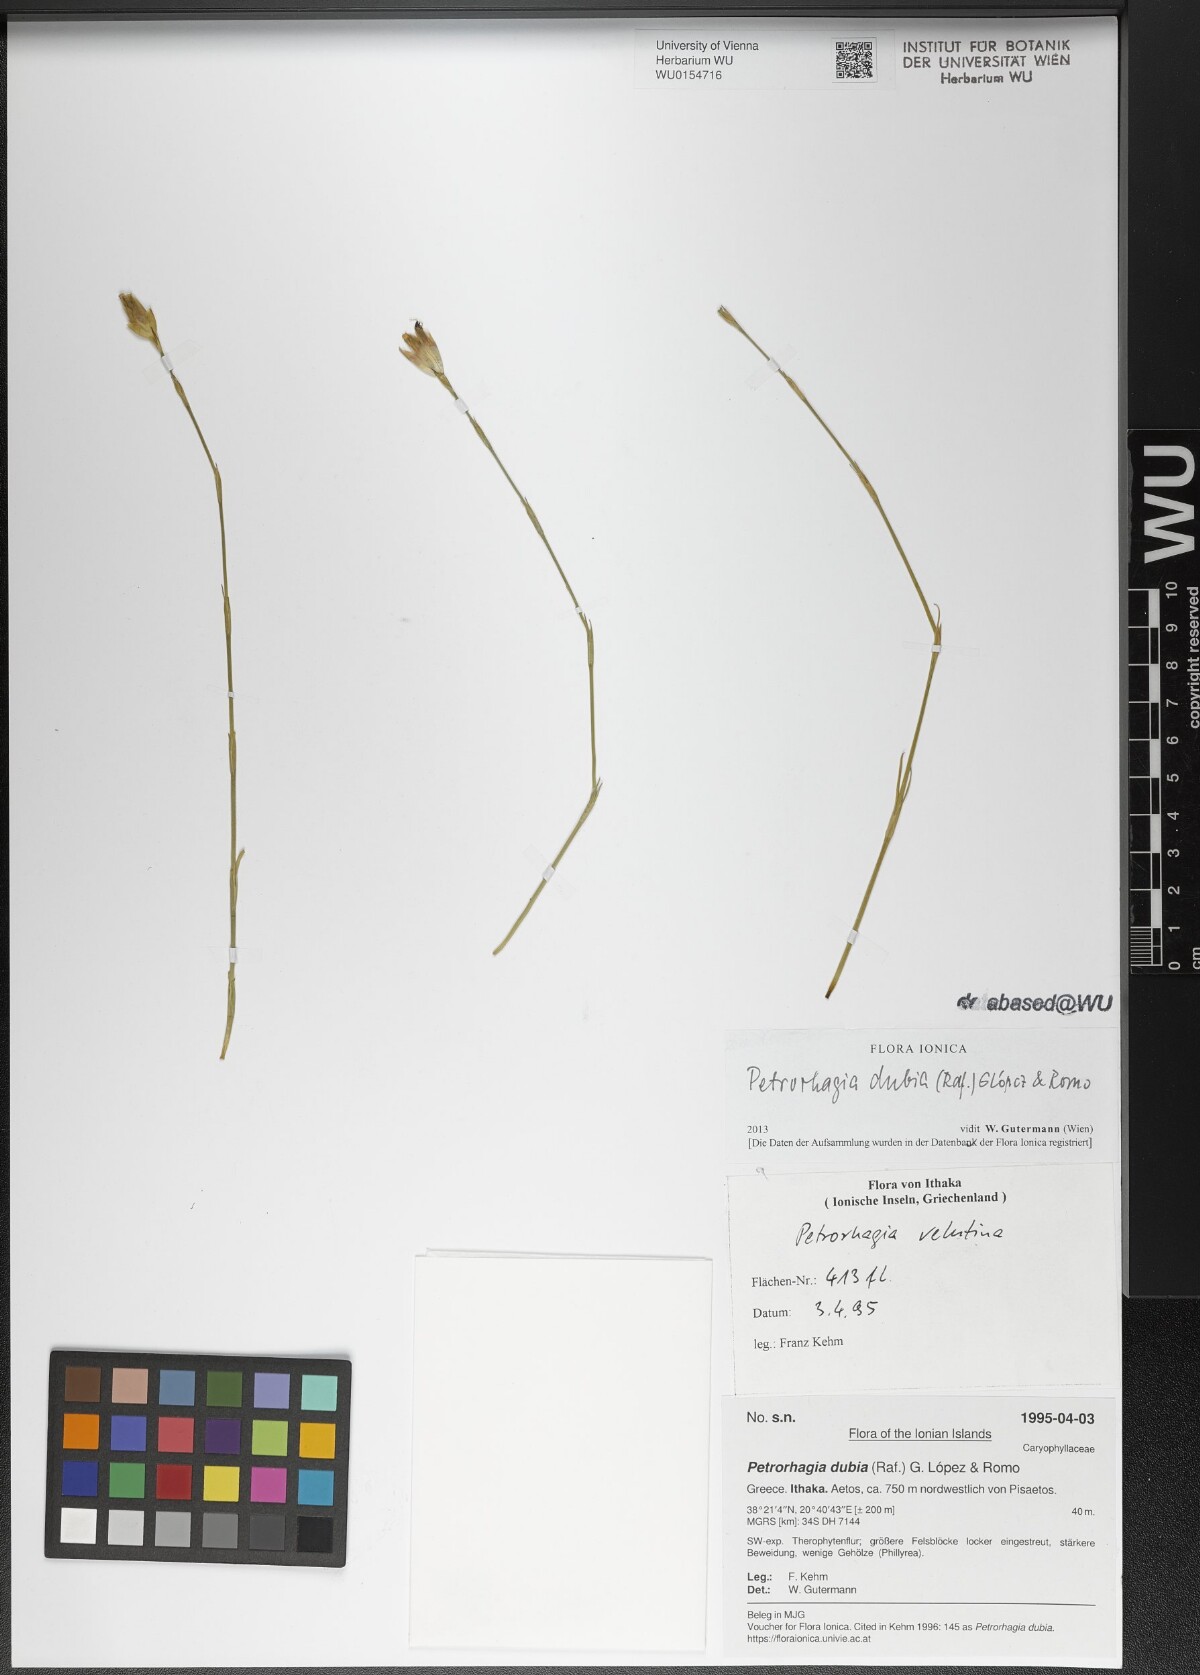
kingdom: Plantae
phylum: Tracheophyta
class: Magnoliopsida
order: Caryophyllales
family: Caryophyllaceae
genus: Petrorhagia
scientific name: Petrorhagia dubia
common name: Hairypink
